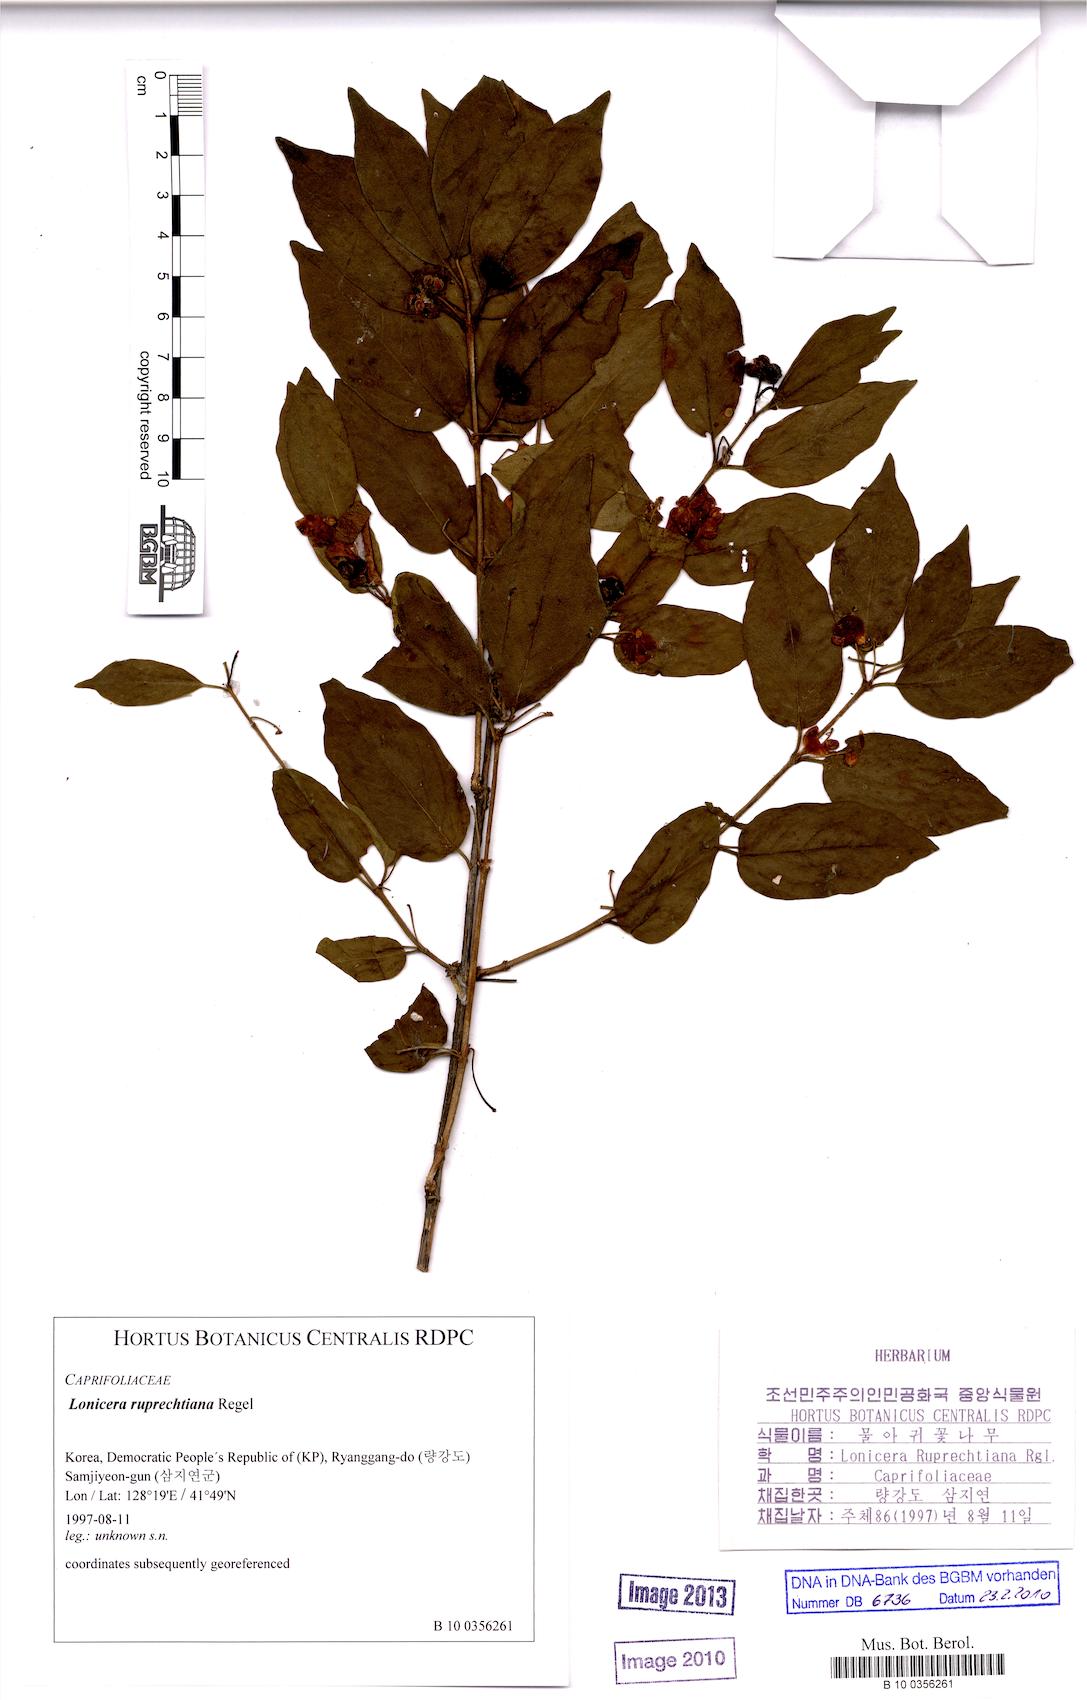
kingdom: Plantae
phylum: Tracheophyta
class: Magnoliopsida
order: Dipsacales
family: Caprifoliaceae
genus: Lonicera
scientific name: Lonicera ruprechtiana
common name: Manchurian honeysuckle
